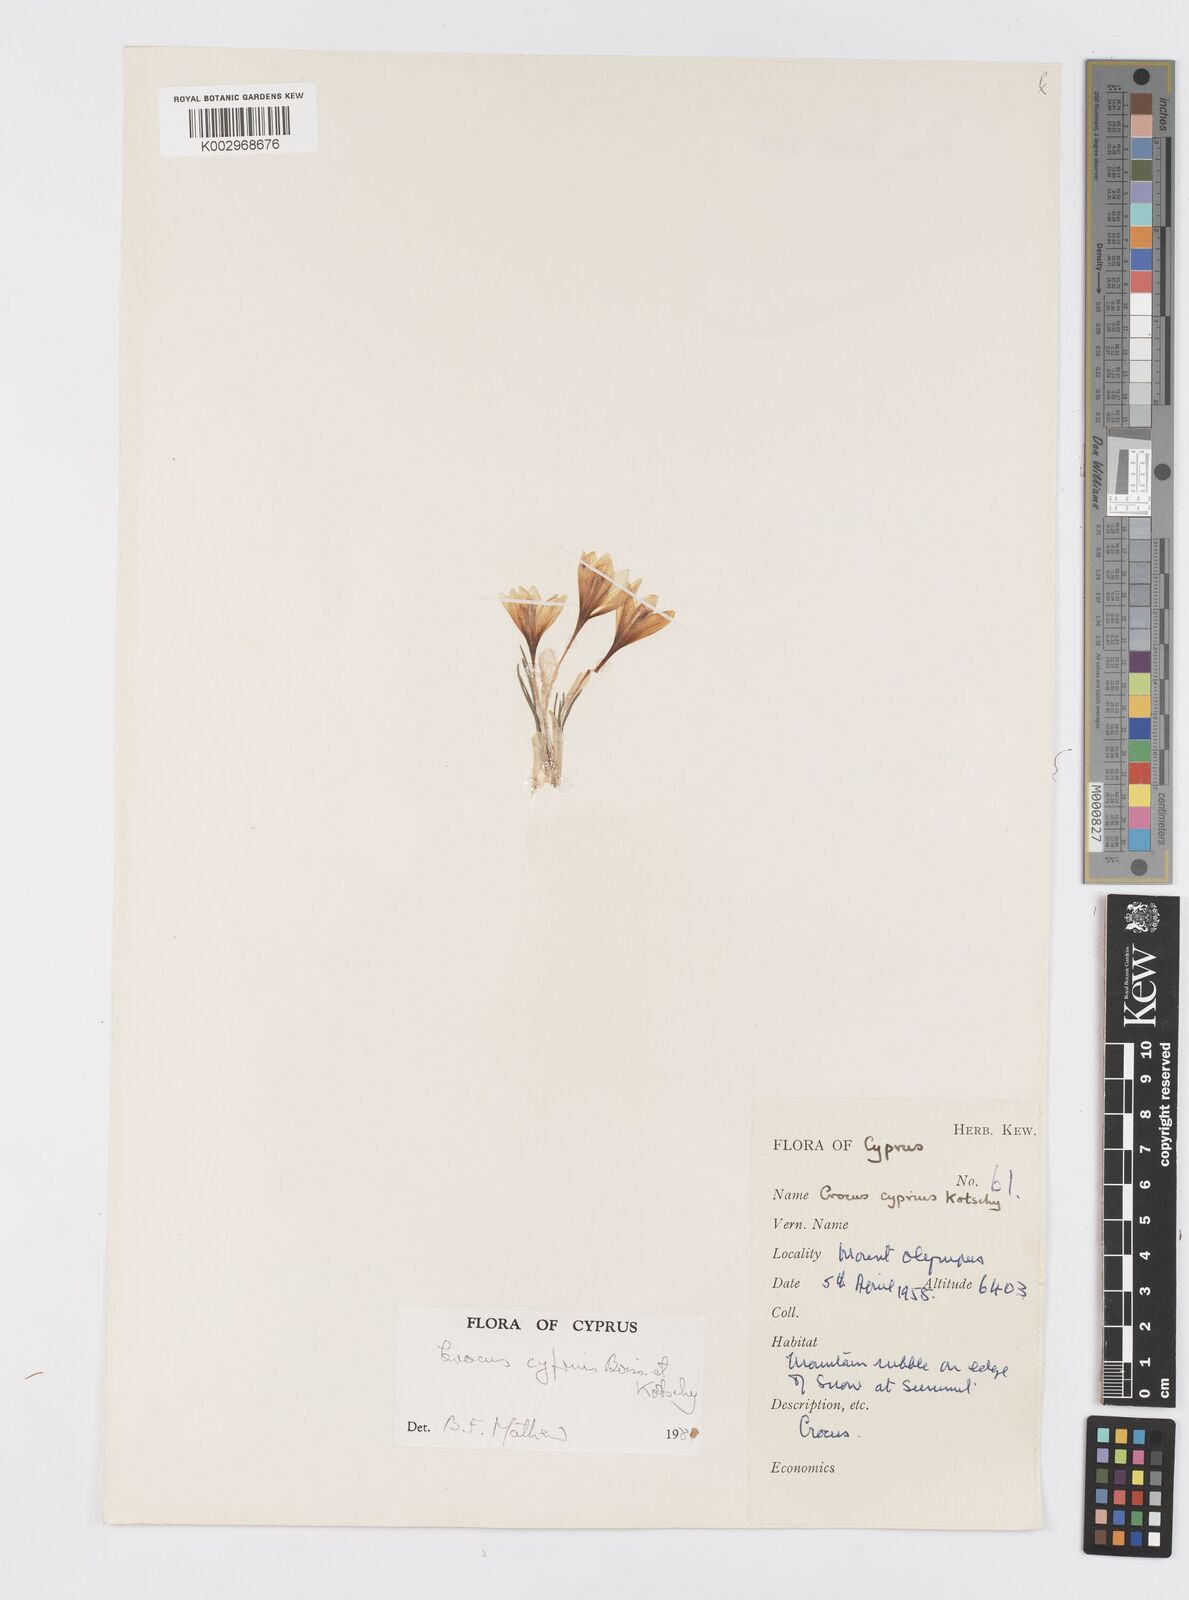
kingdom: Plantae
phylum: Tracheophyta
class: Liliopsida
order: Asparagales
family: Iridaceae
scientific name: Iridaceae
